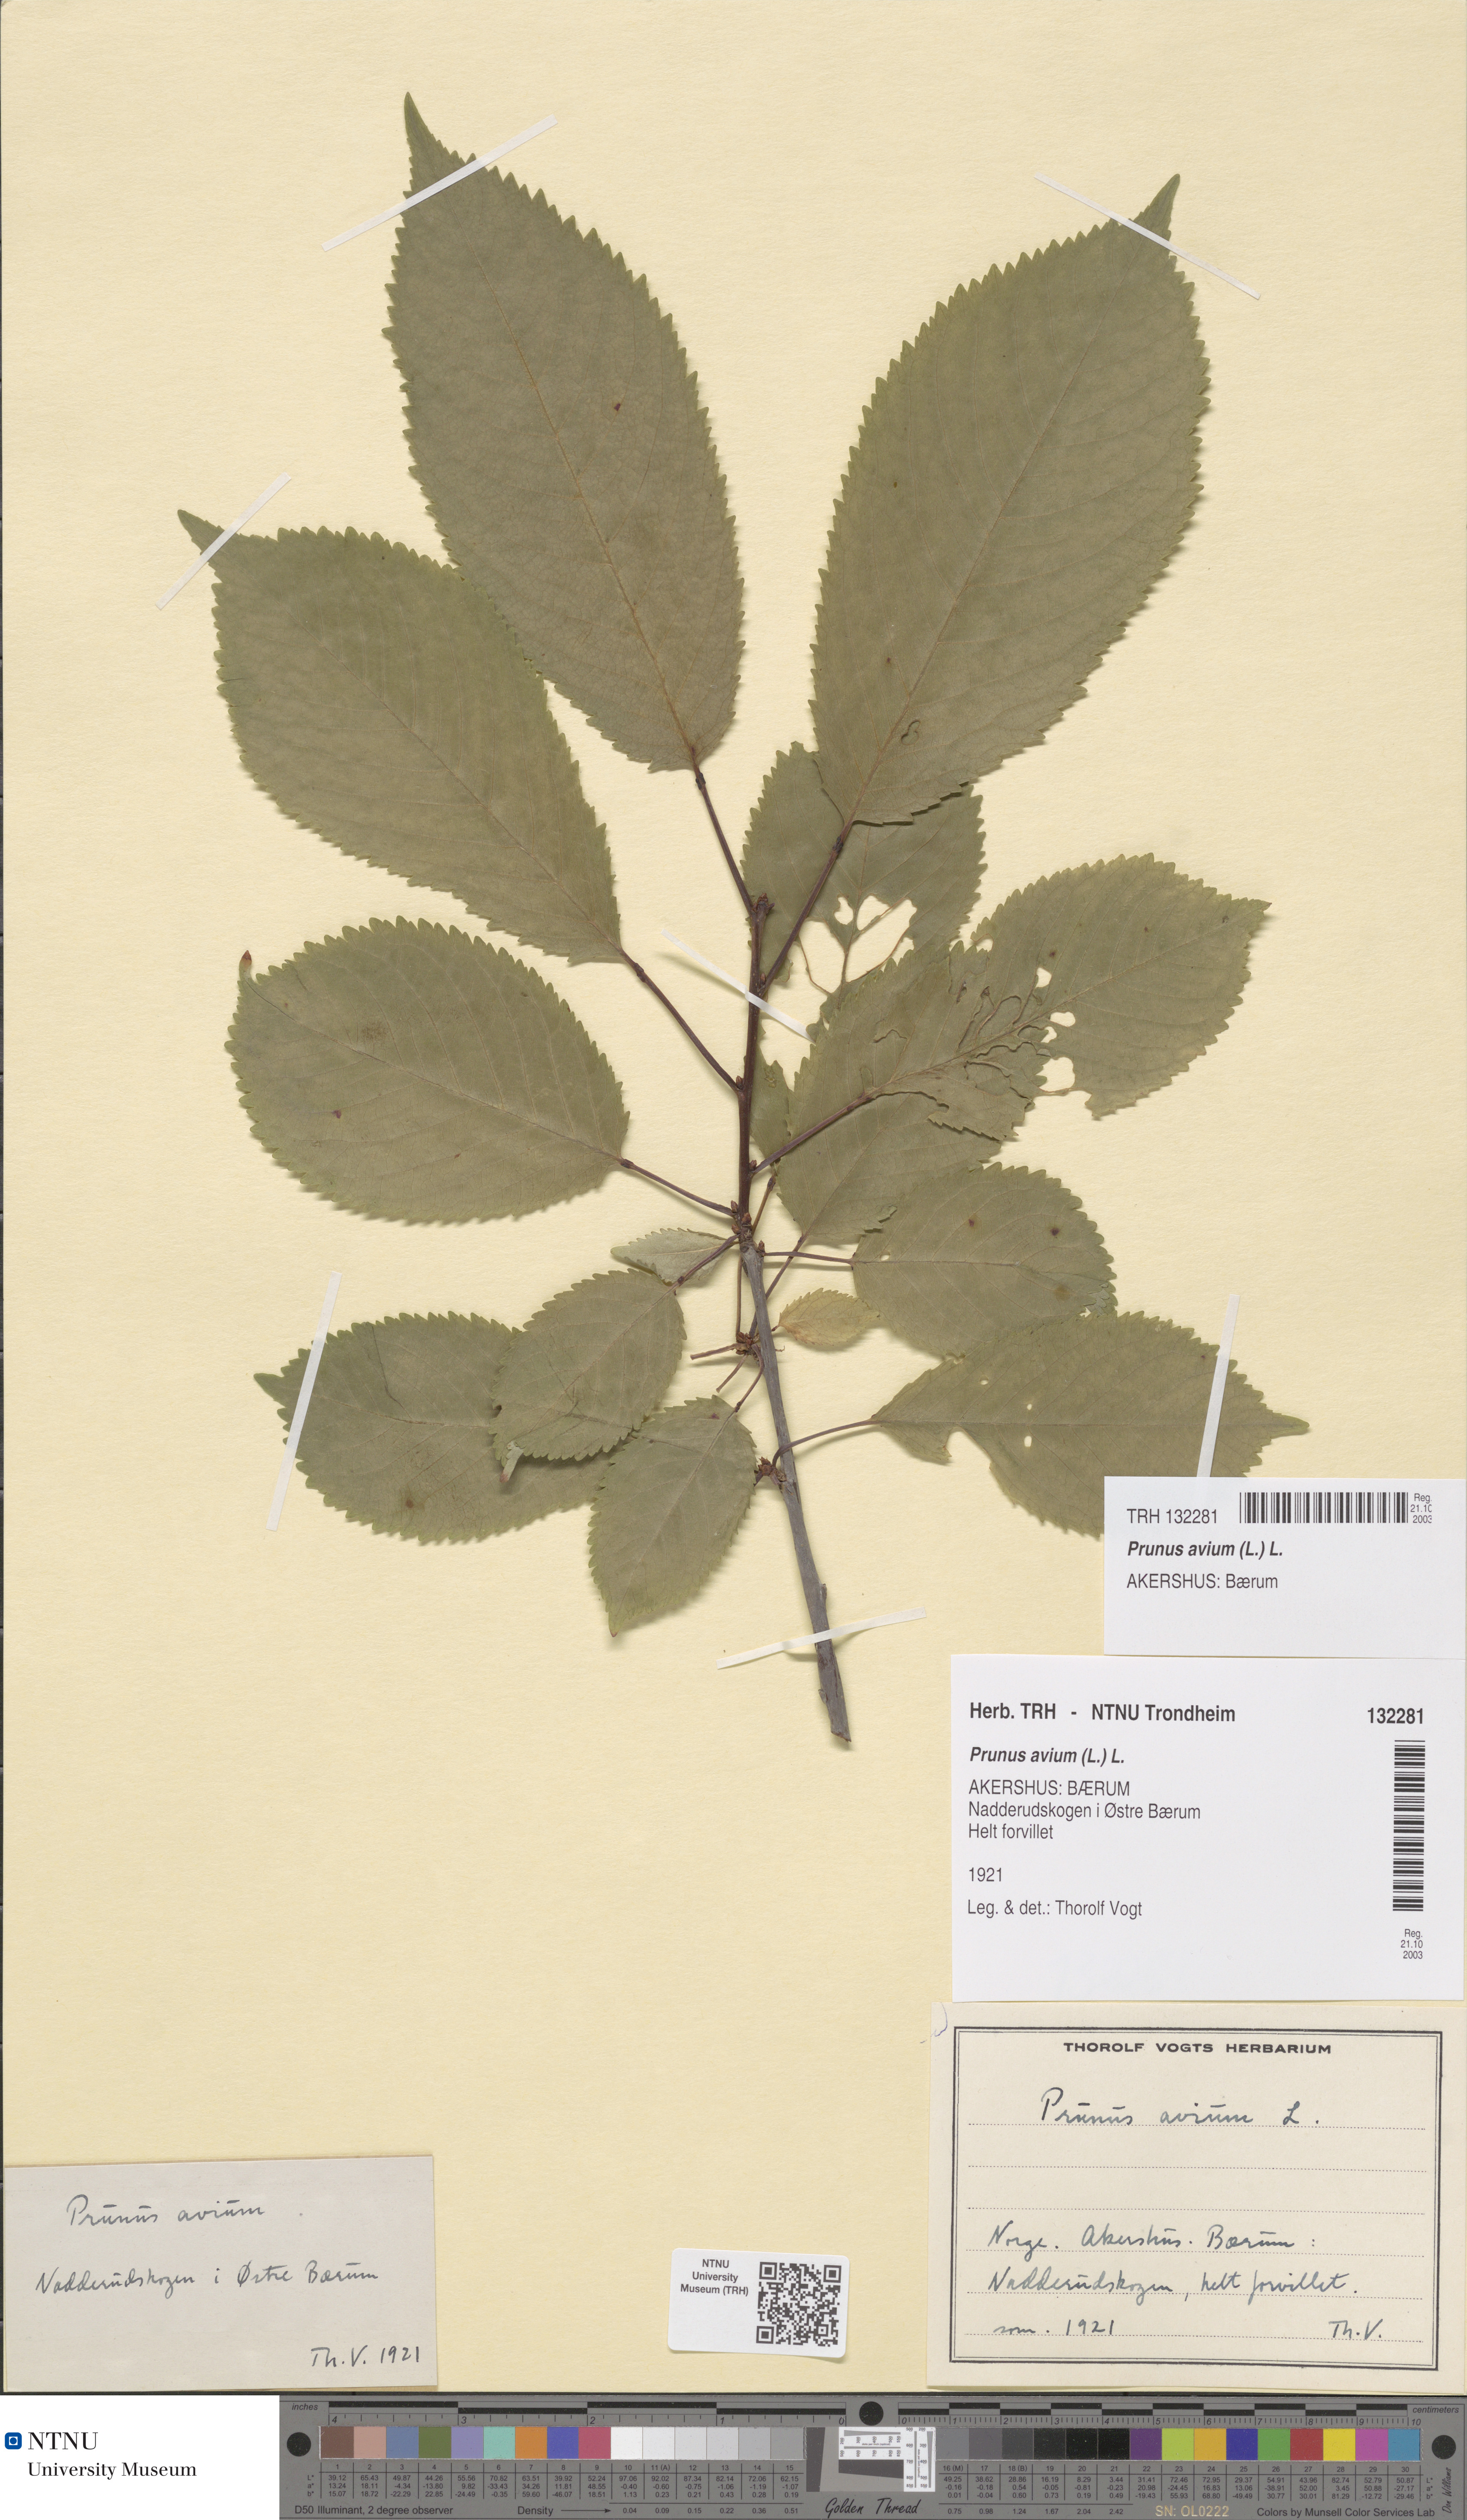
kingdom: Plantae
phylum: Tracheophyta
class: Magnoliopsida
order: Rosales
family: Rosaceae
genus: Prunus
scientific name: Prunus avium
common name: Sweet cherry
